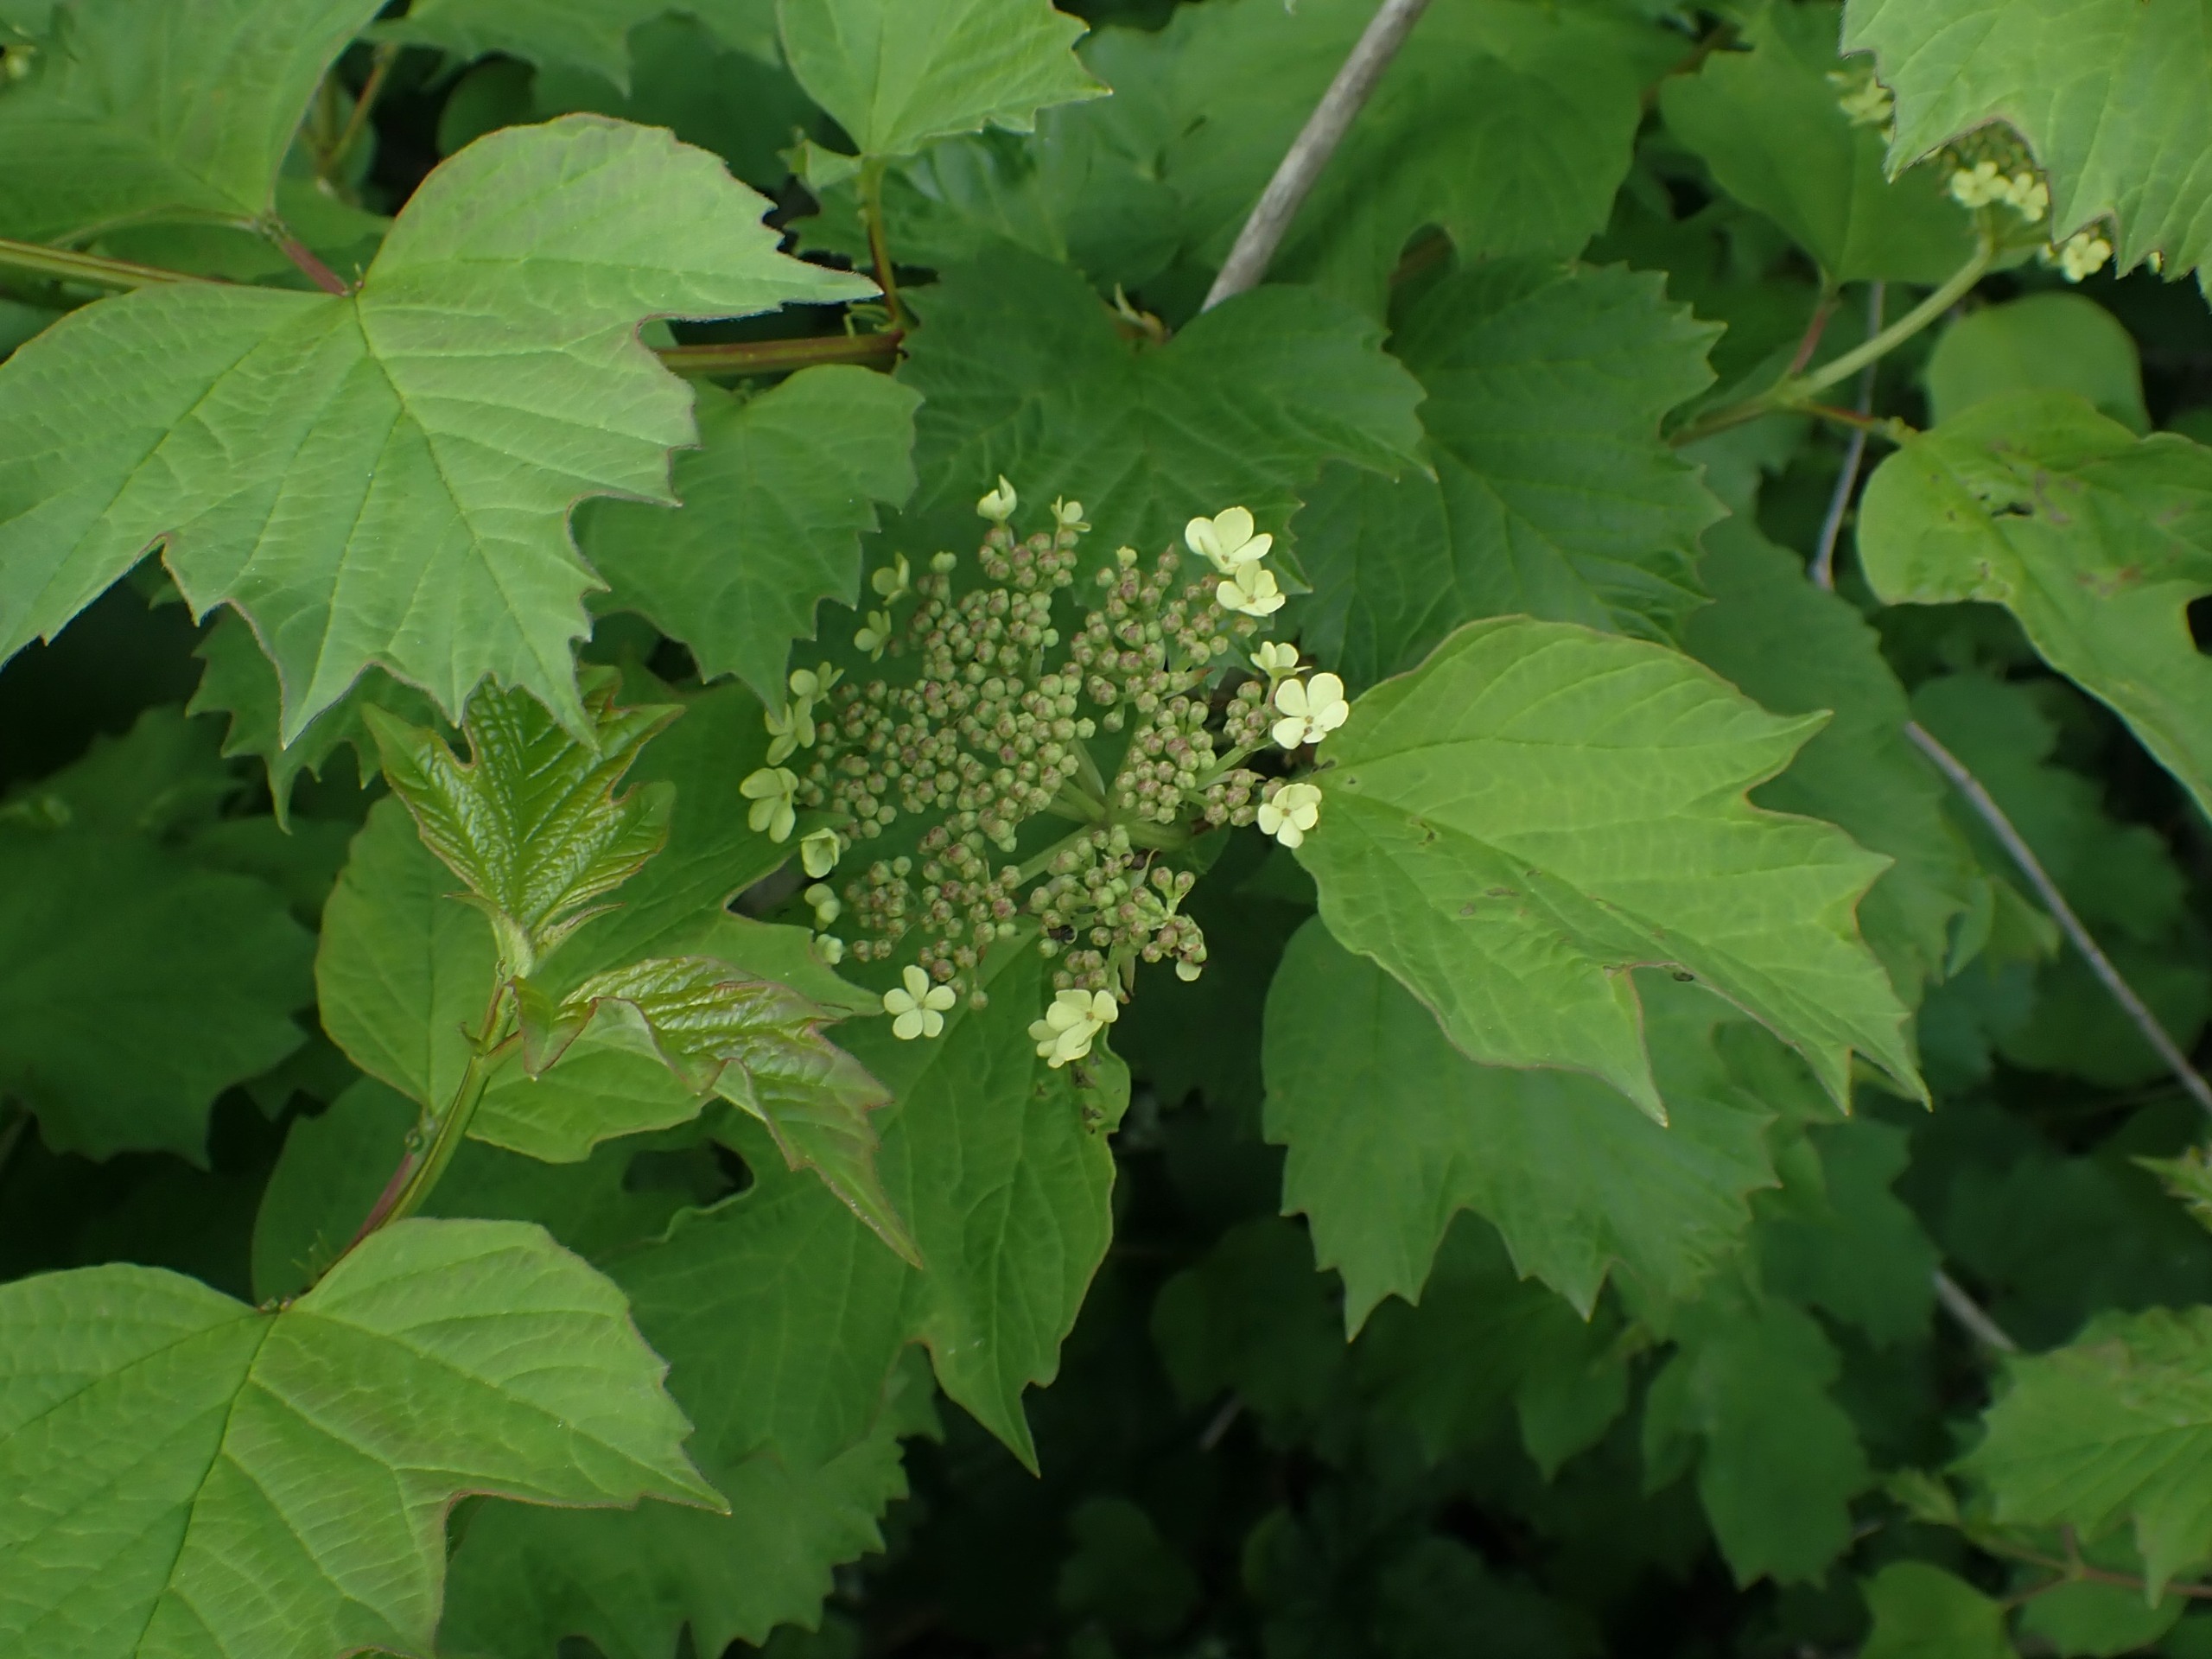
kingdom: Plantae
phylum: Tracheophyta
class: Magnoliopsida
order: Dipsacales
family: Viburnaceae
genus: Viburnum
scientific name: Viburnum opulus
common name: Kvalkved
